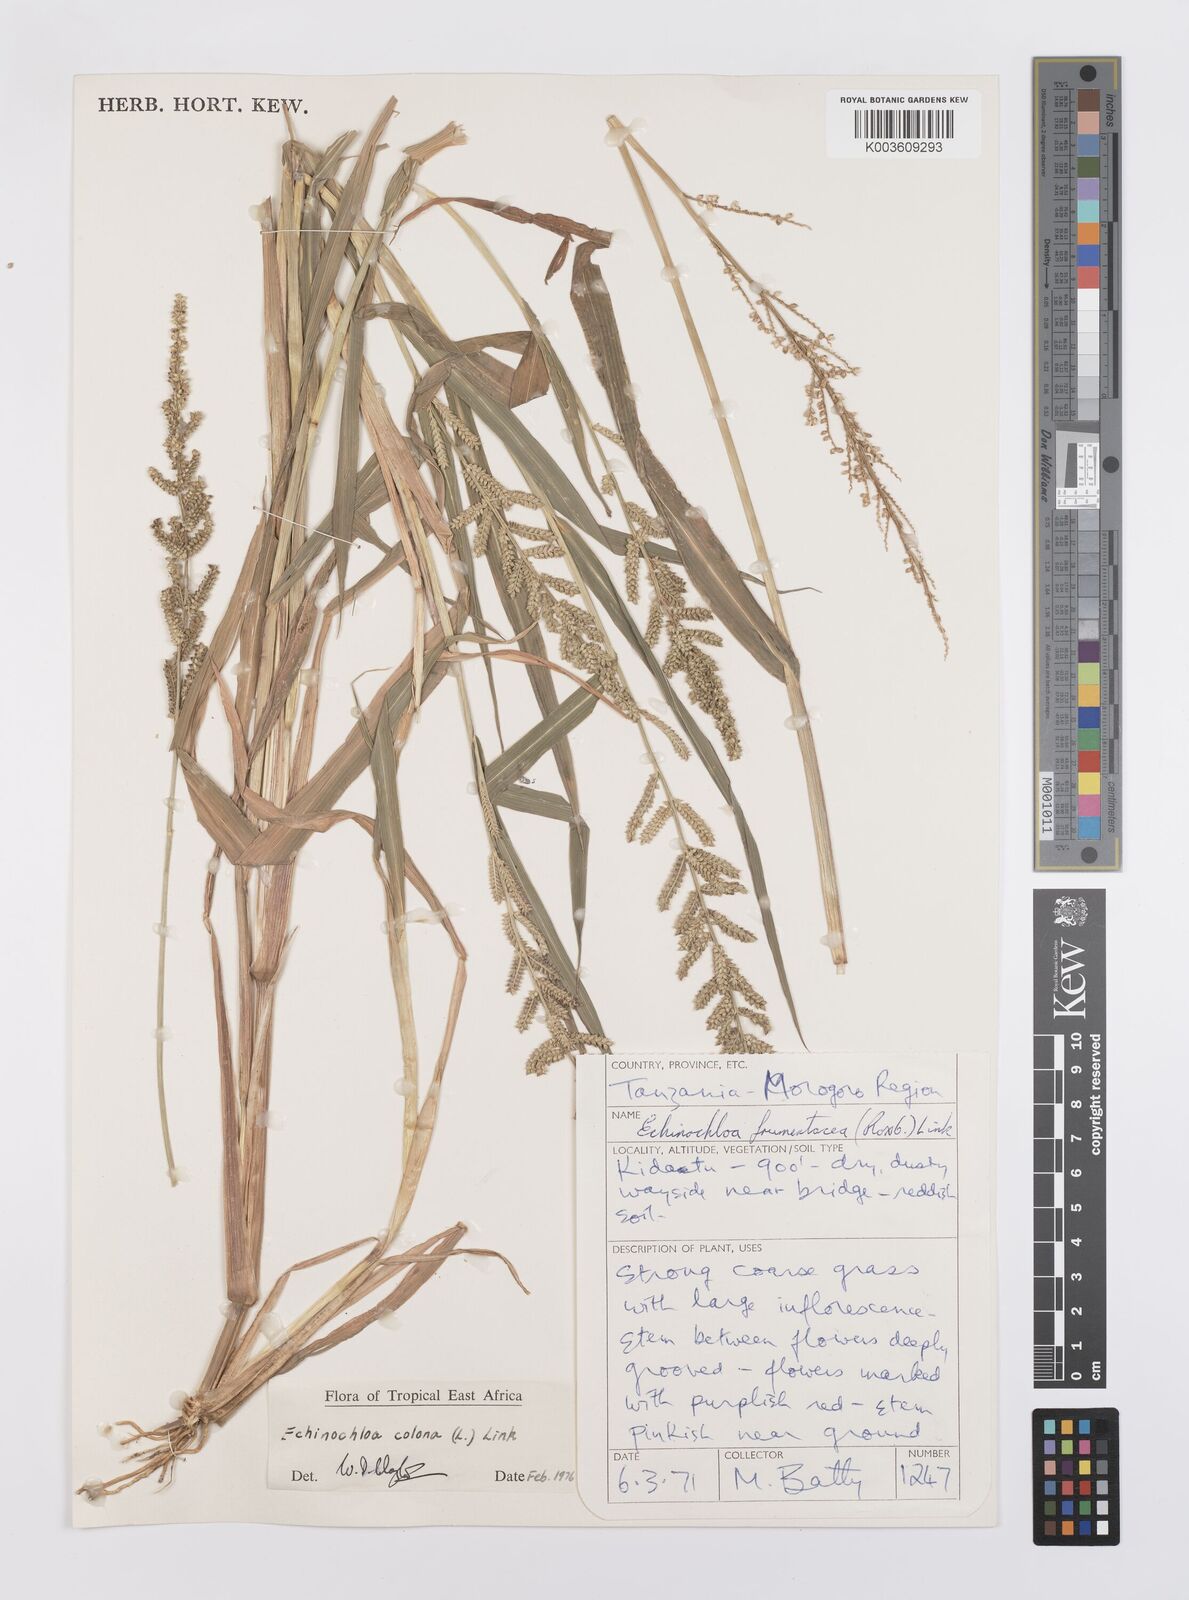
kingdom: Plantae
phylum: Tracheophyta
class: Liliopsida
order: Poales
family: Poaceae
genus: Echinochloa
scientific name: Echinochloa colonum
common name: Jungle rice
